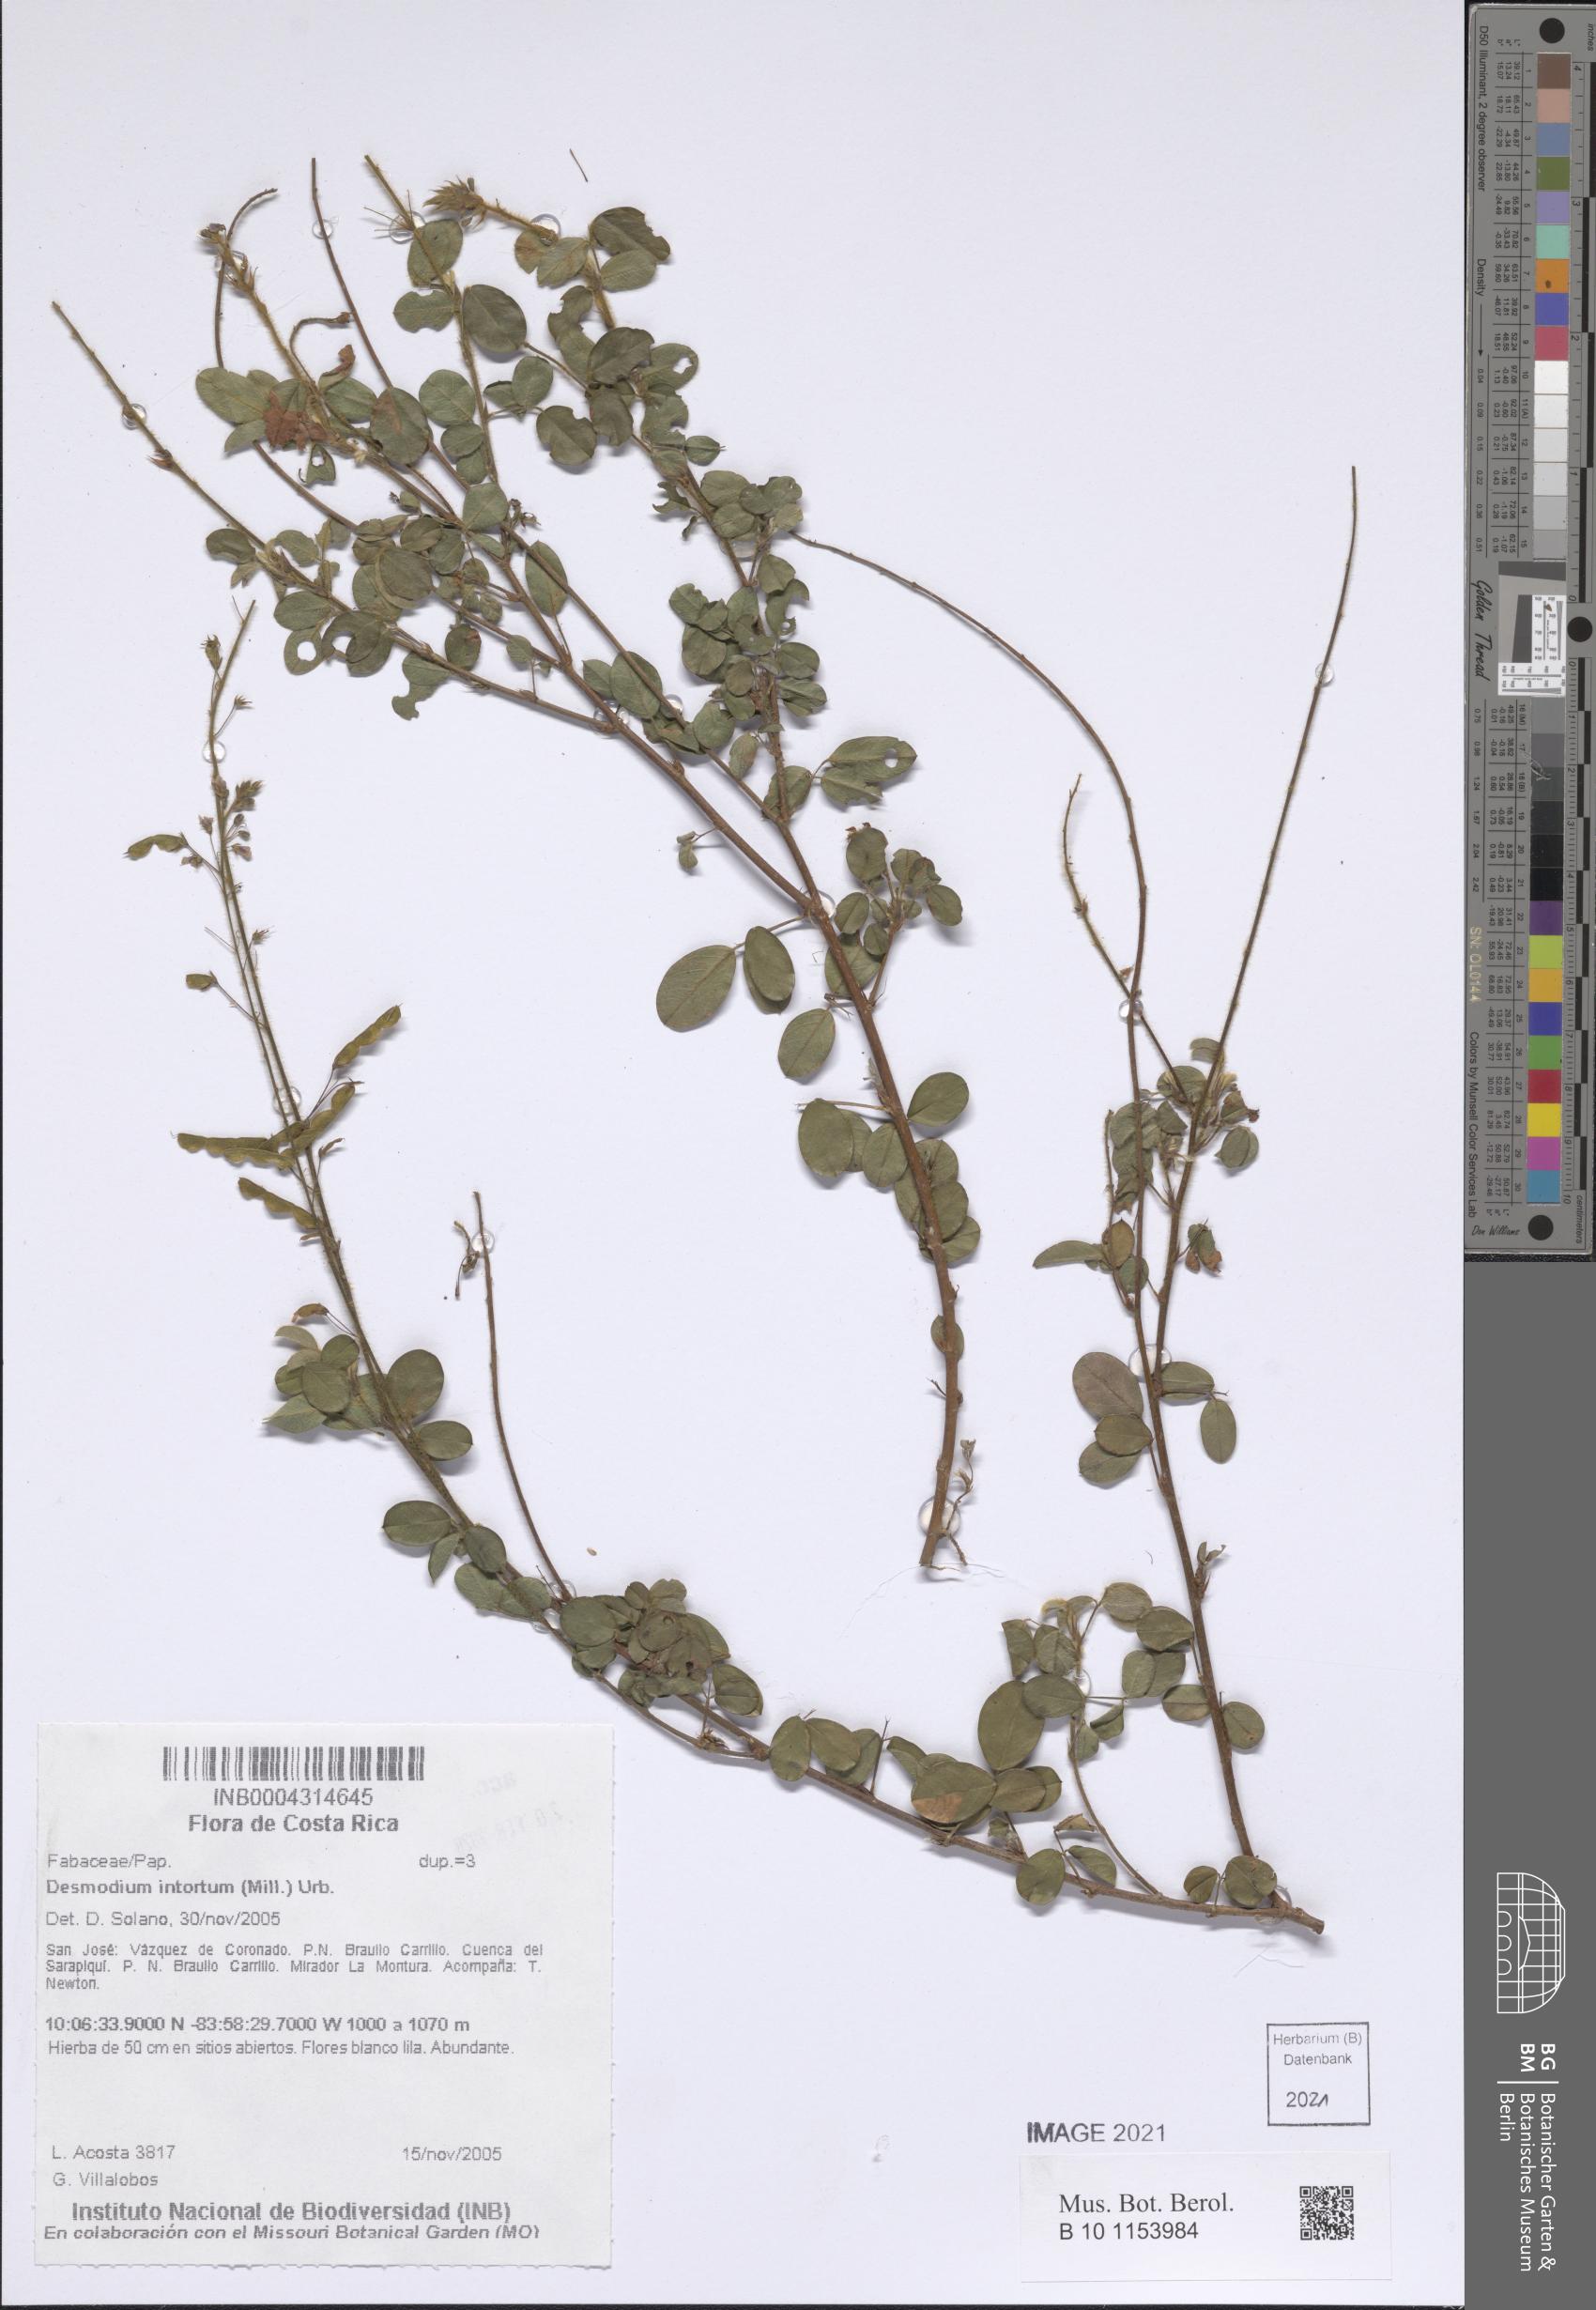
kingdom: Plantae
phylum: Tracheophyta
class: Magnoliopsida
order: Fabales
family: Fabaceae
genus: Desmodium
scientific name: Desmodium intortum
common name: Greenleaf ticktrefoil
